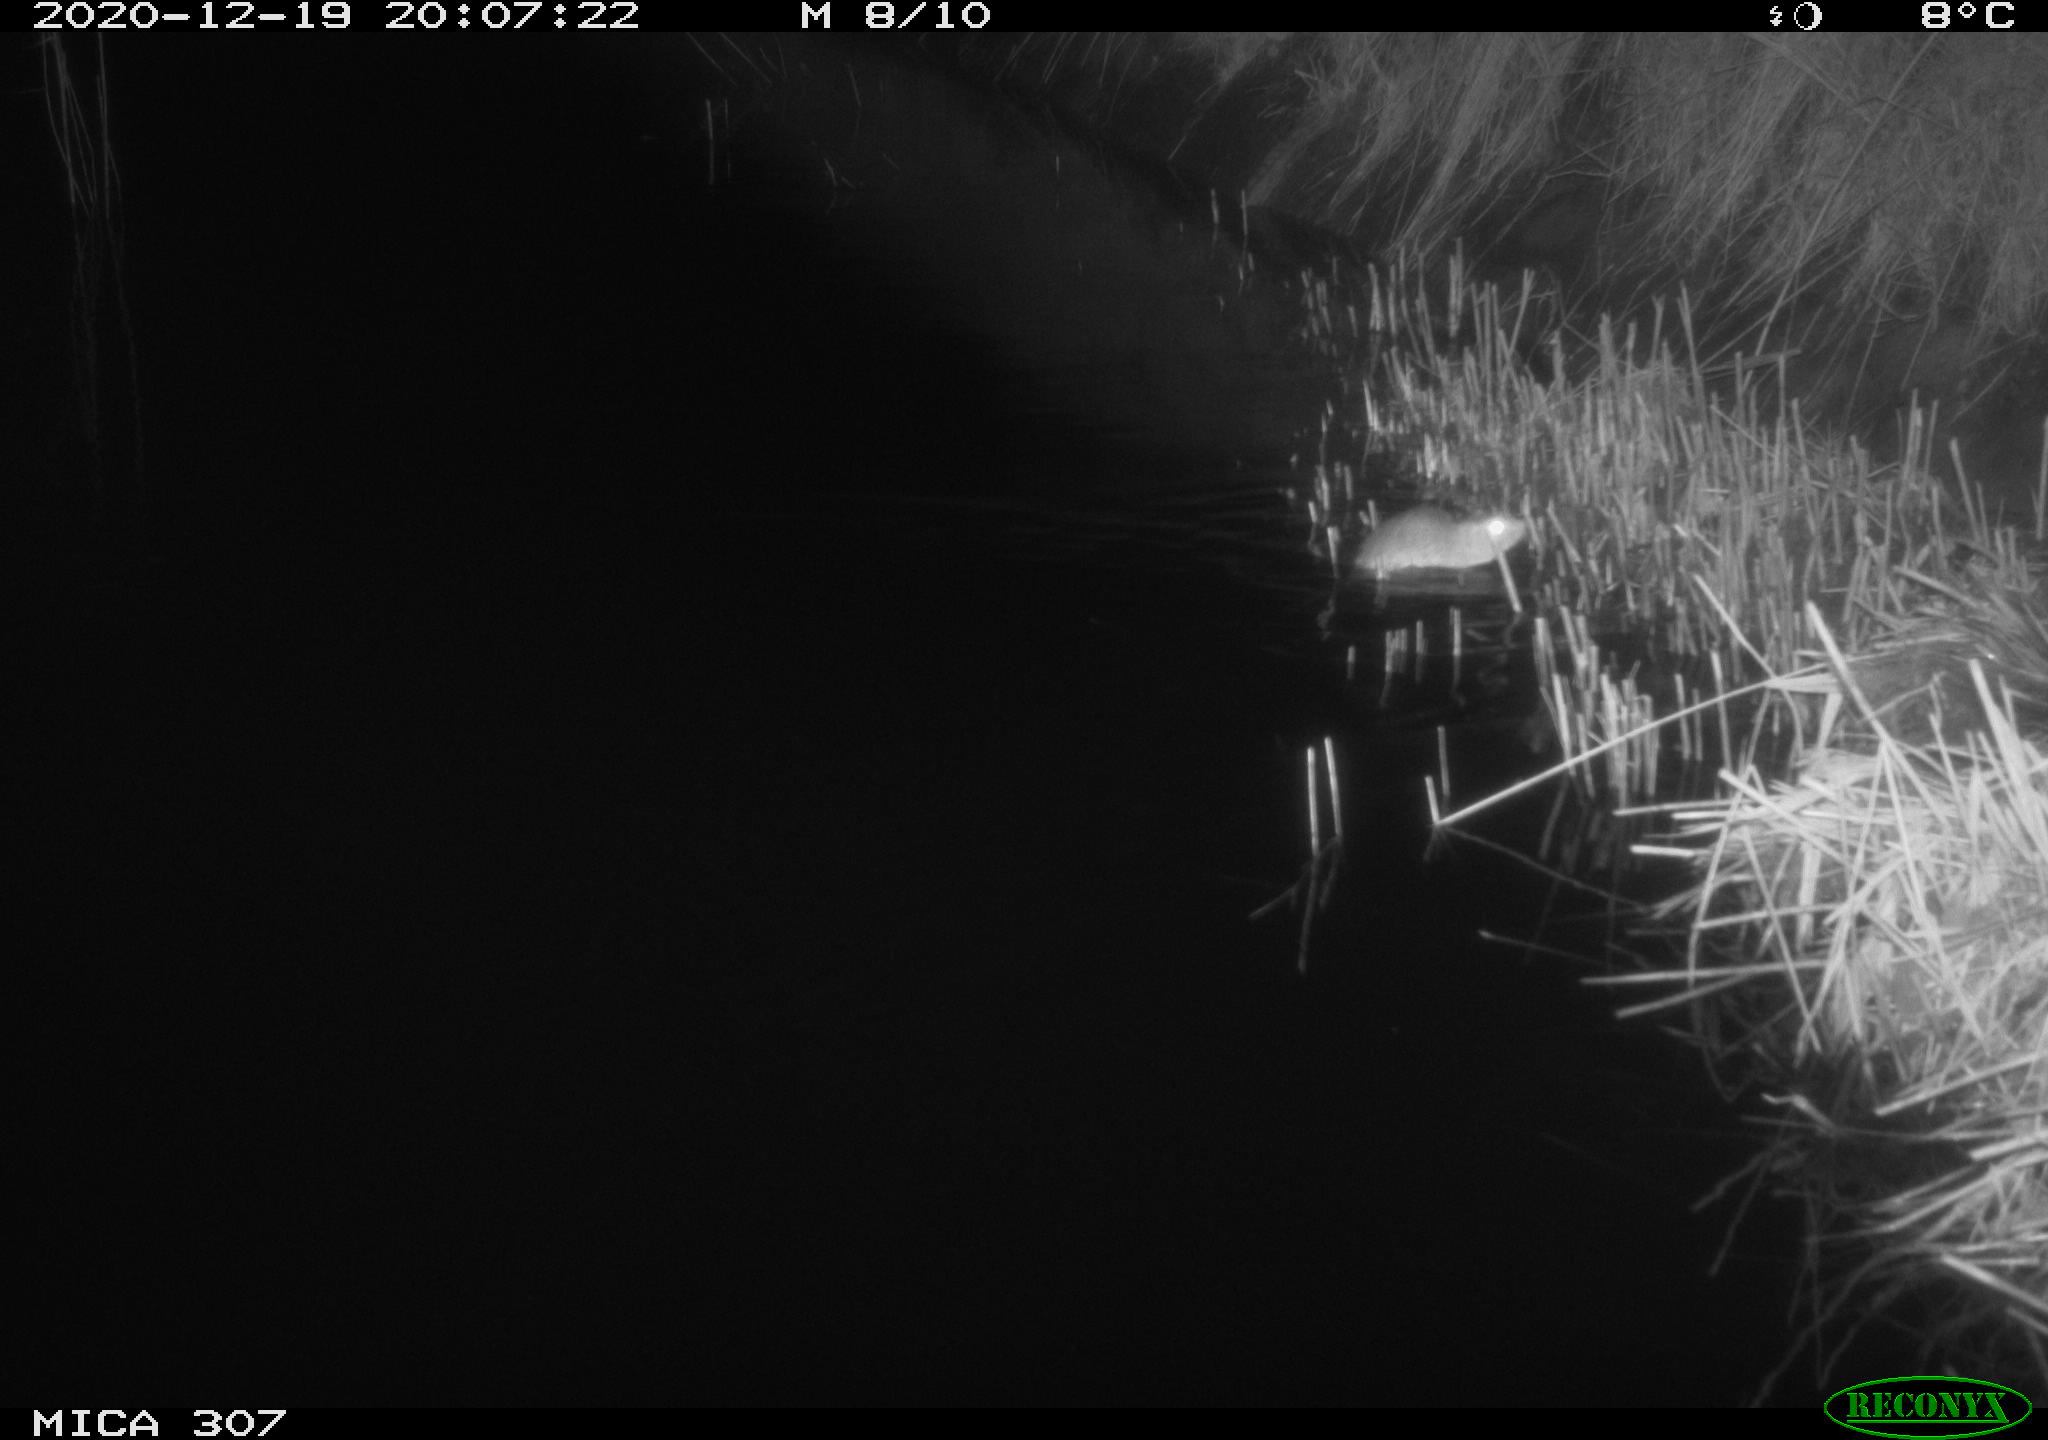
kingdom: Animalia
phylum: Chordata
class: Mammalia
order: Rodentia
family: Muridae
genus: Rattus
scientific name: Rattus norvegicus
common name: Brown rat
